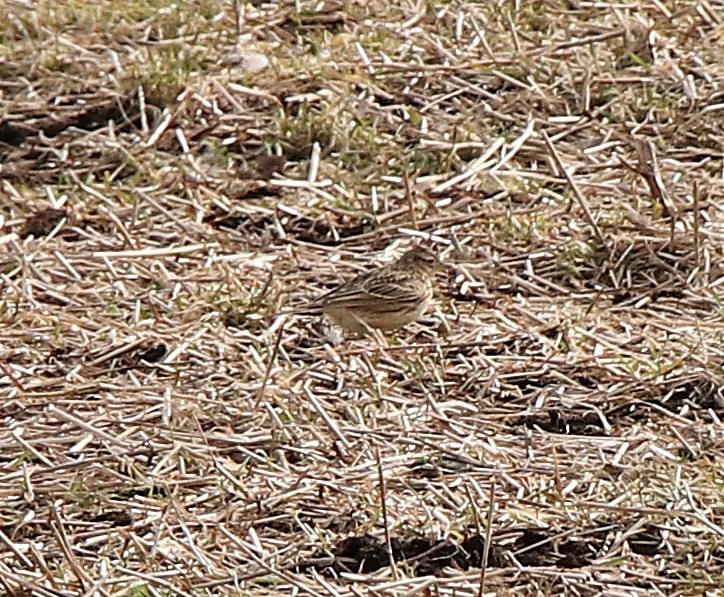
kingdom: Animalia
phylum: Chordata
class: Aves
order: Passeriformes
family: Alaudidae
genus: Alauda
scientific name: Alauda arvensis
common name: Sanglærke
